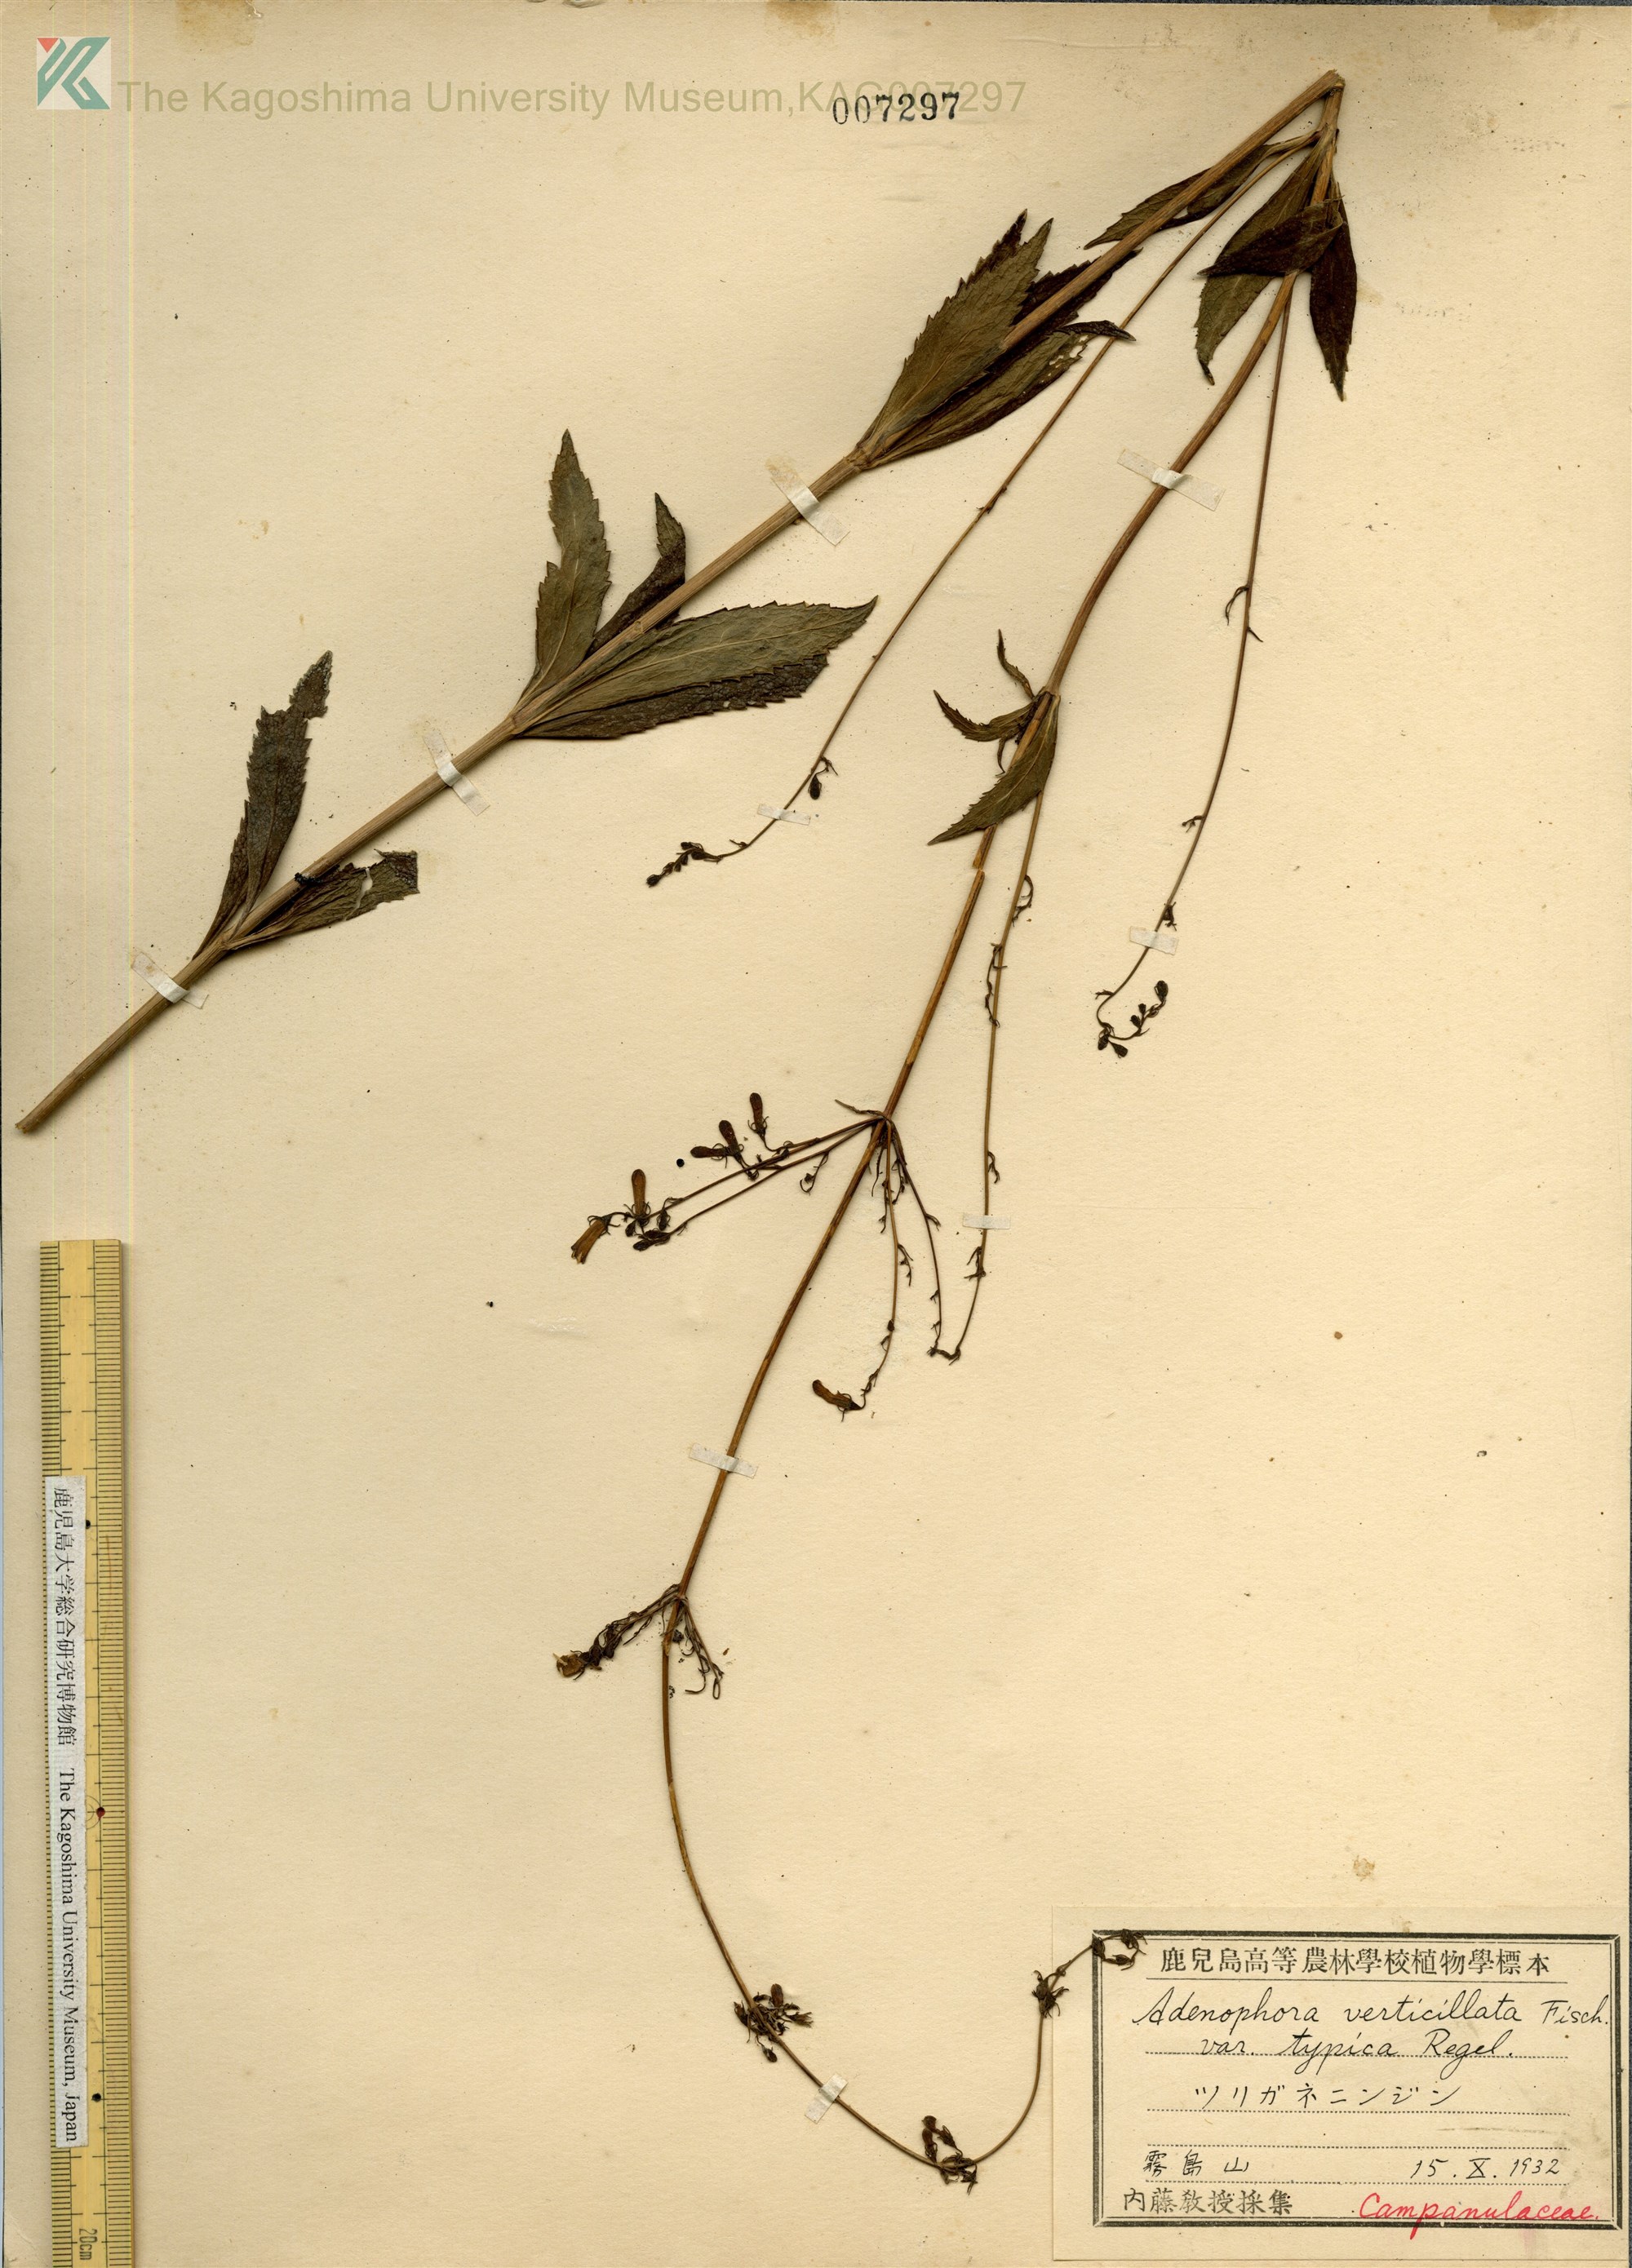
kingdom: Plantae
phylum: Tracheophyta
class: Magnoliopsida
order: Asterales
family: Campanulaceae
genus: Adenophora
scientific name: Adenophora triphylla
